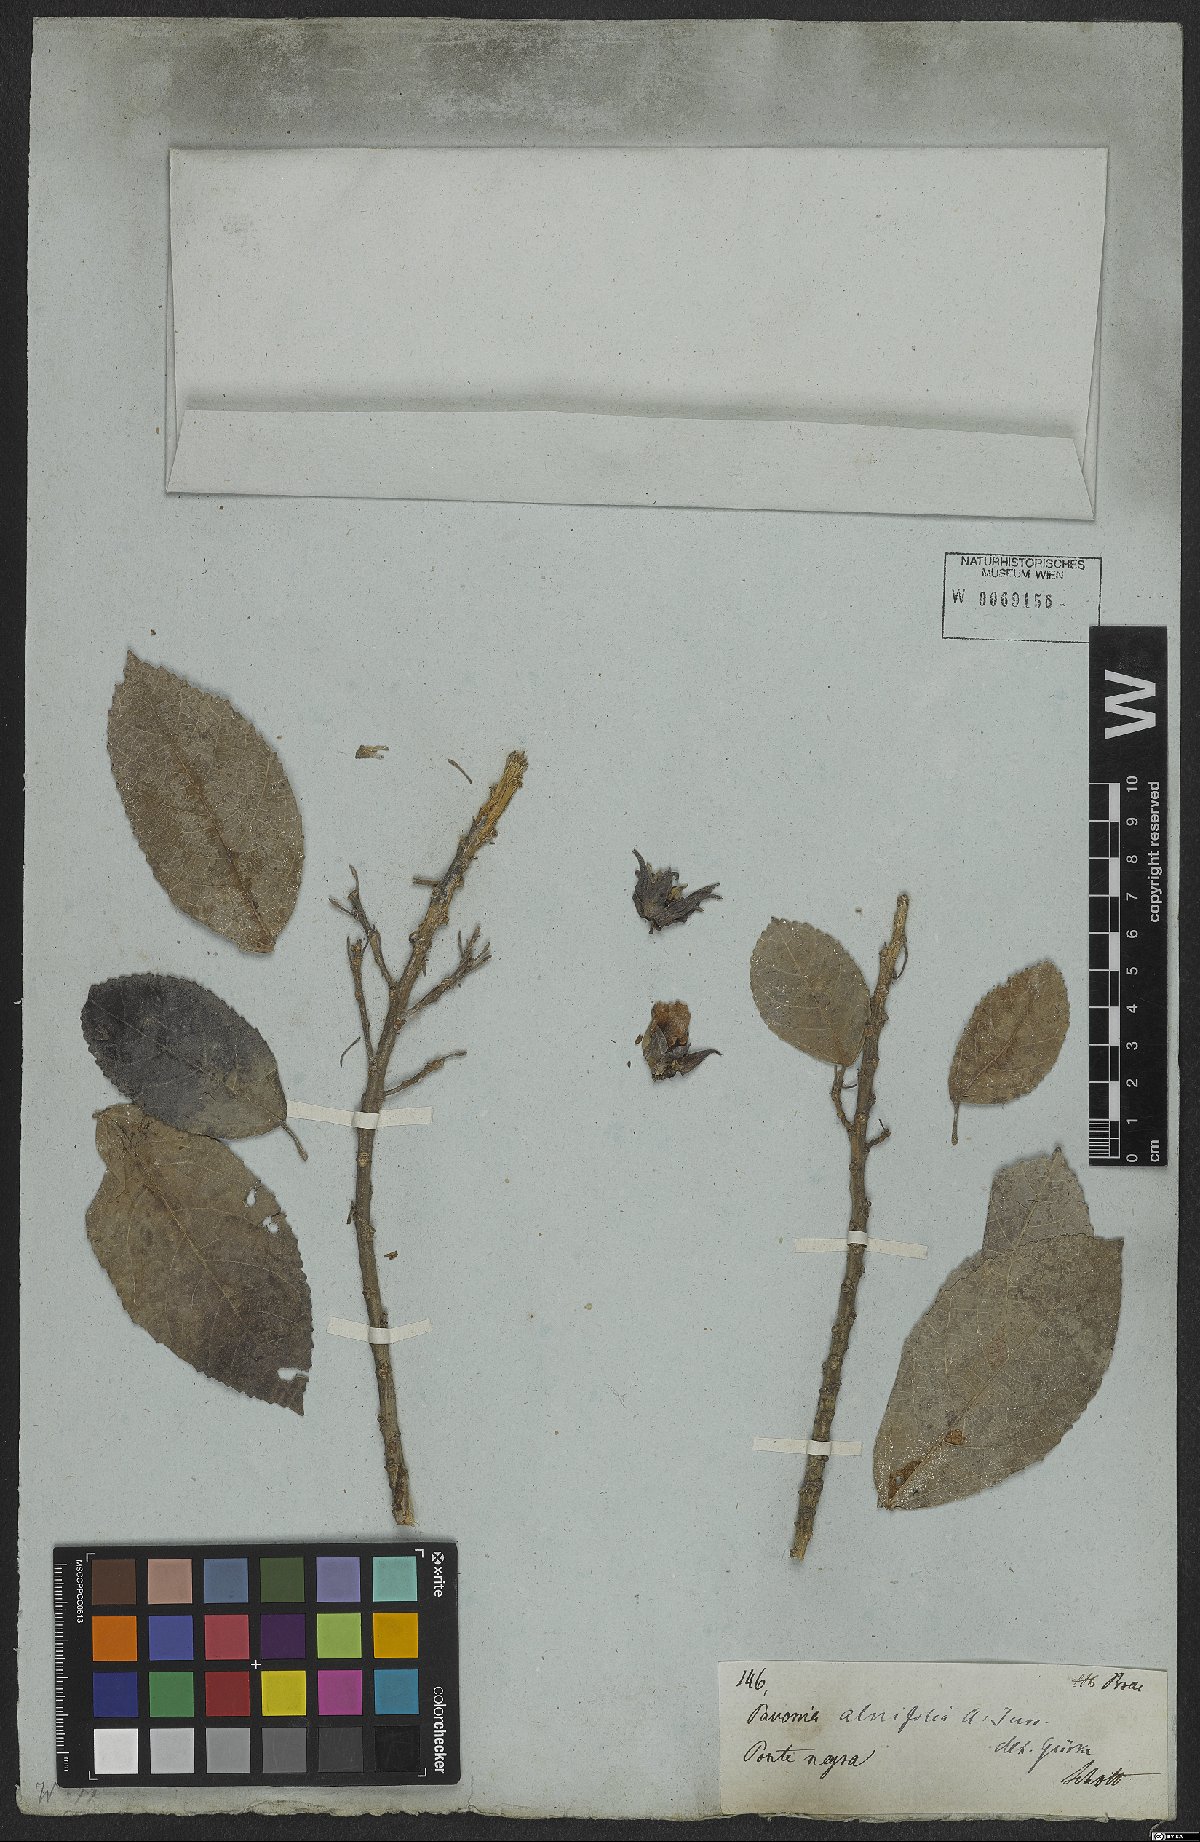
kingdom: Plantae
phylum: Tracheophyta
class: Magnoliopsida
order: Malvales
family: Malvaceae
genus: Pavonia
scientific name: Pavonia alnifolia
